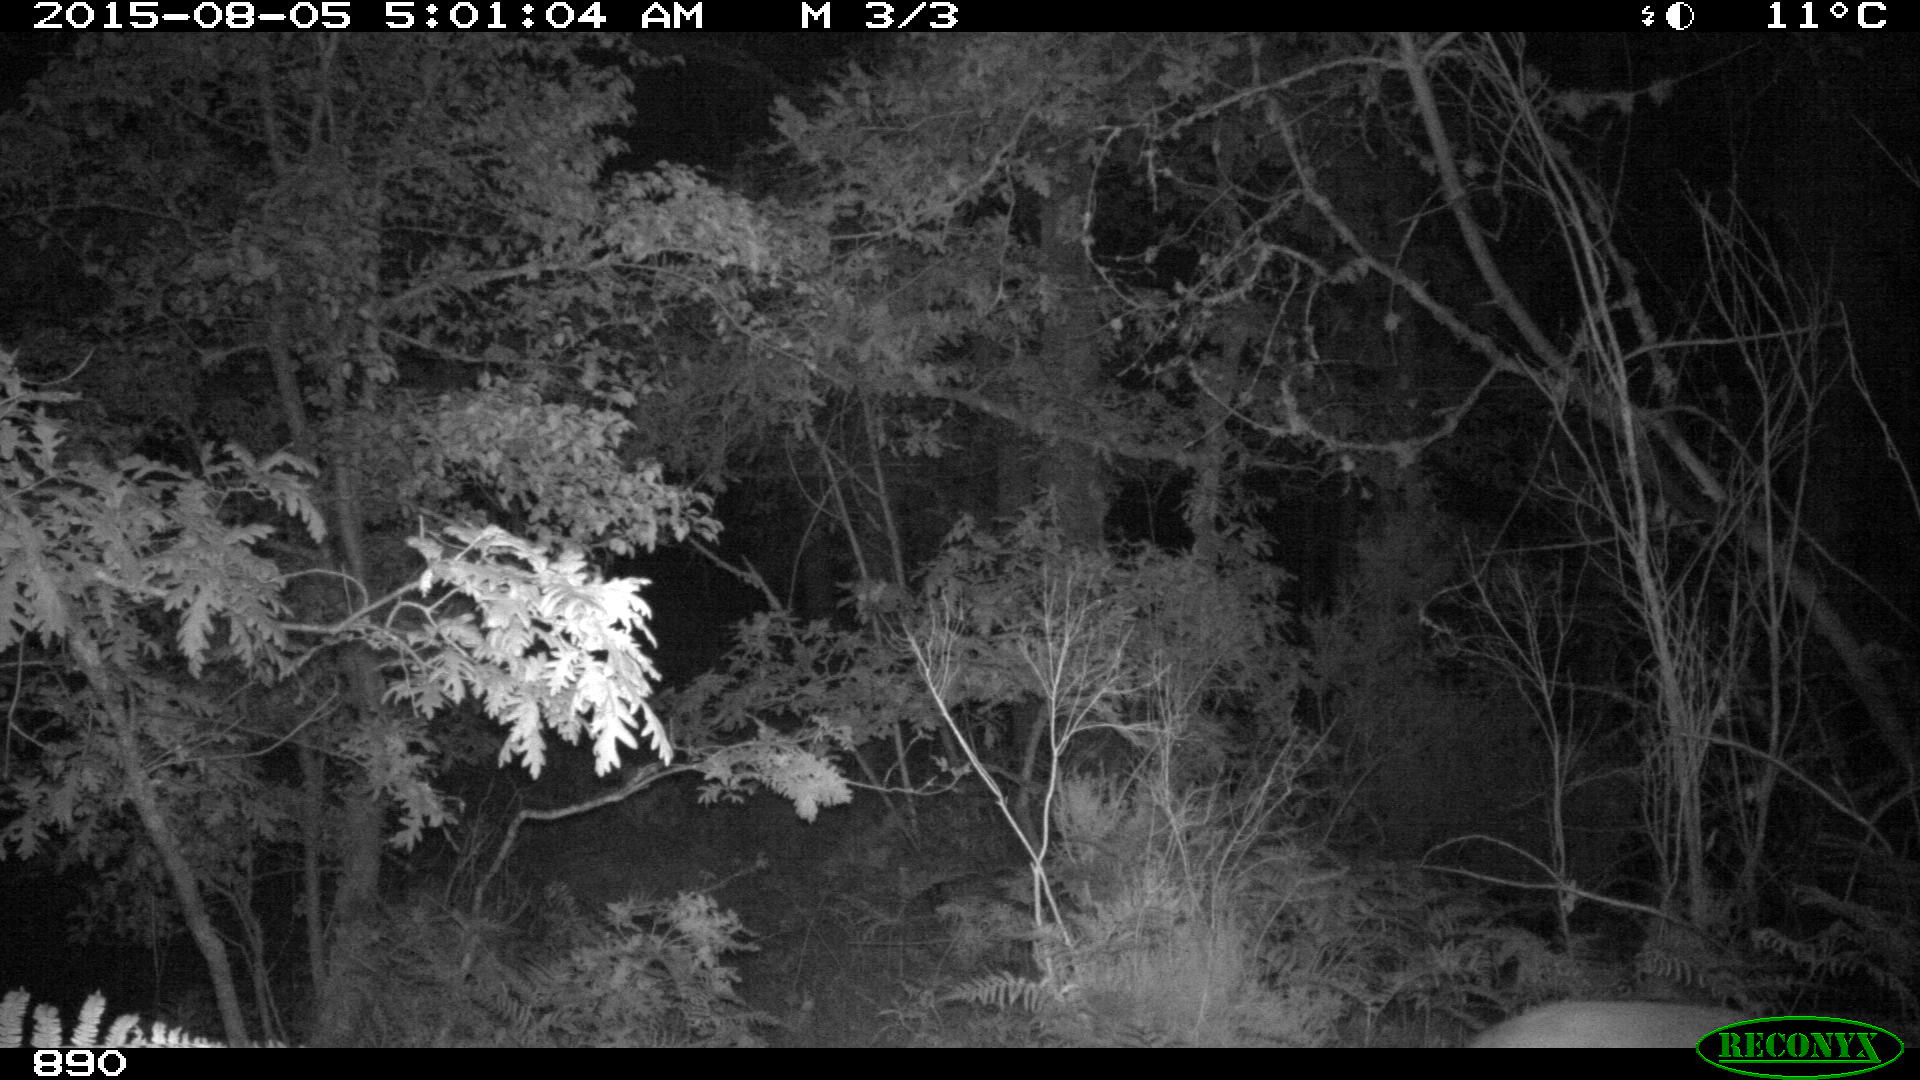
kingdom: Animalia
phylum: Chordata
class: Mammalia
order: Artiodactyla
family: Cervidae
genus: Capreolus
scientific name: Capreolus capreolus
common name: Western roe deer
